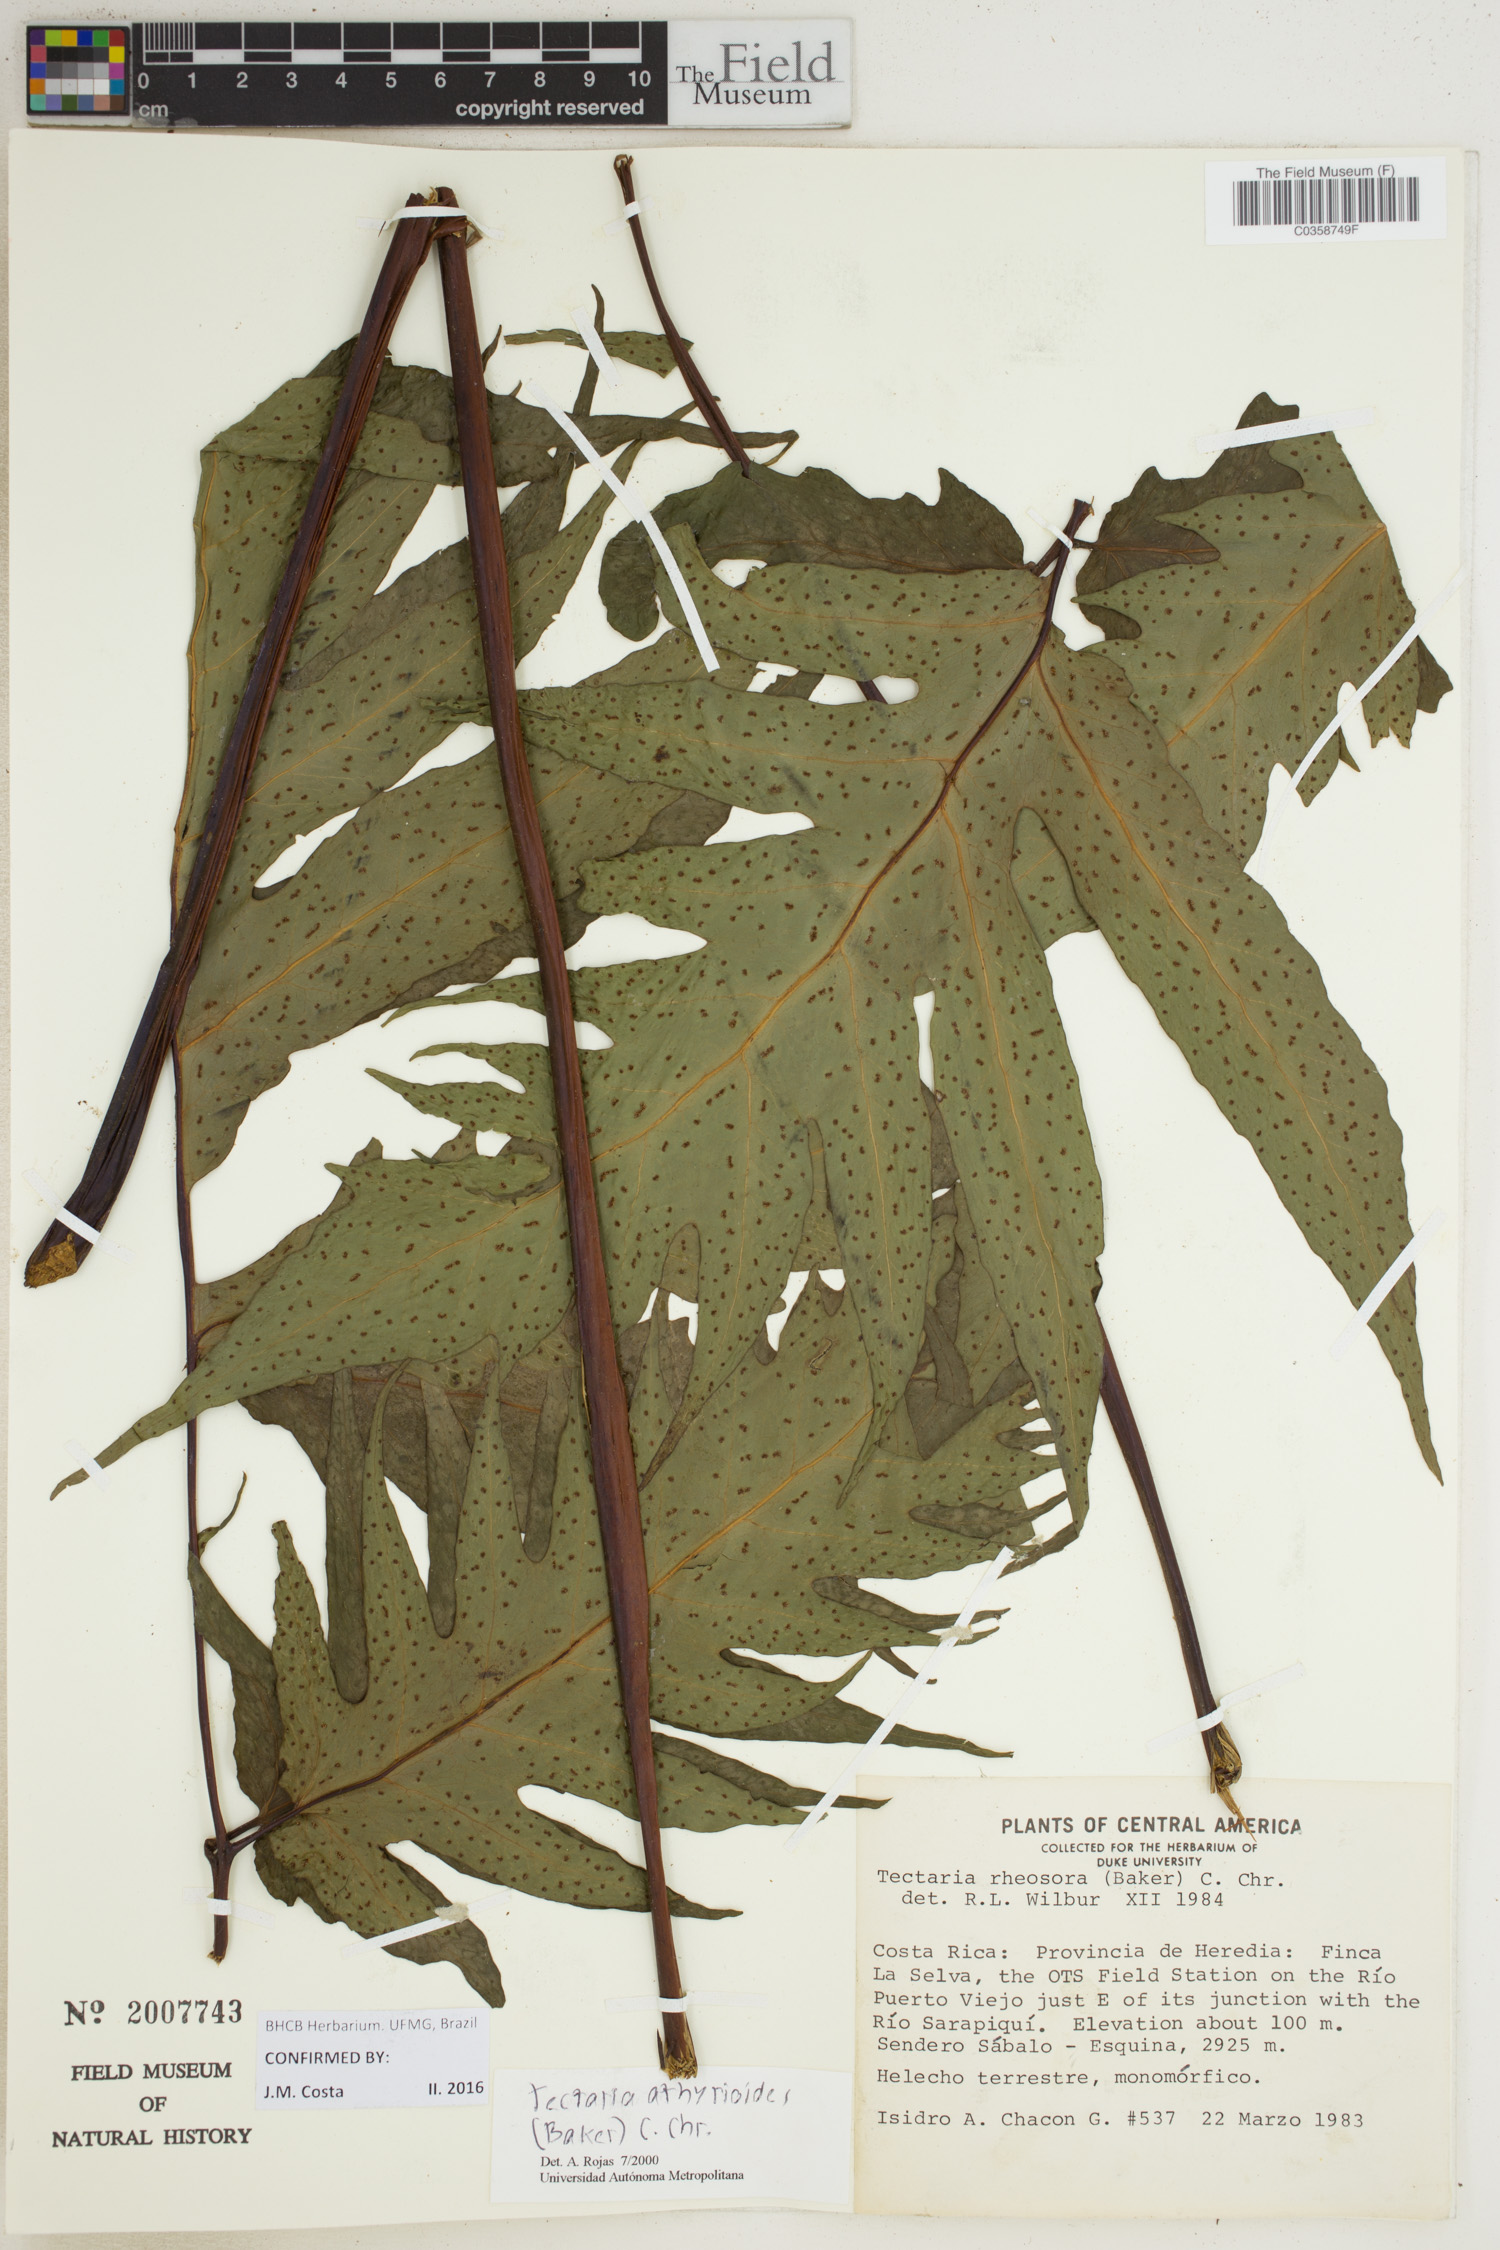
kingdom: Plantae
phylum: Tracheophyta
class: Polypodiopsida
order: Polypodiales
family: Tectariaceae
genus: Tectaria
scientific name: Tectaria athyrioides
